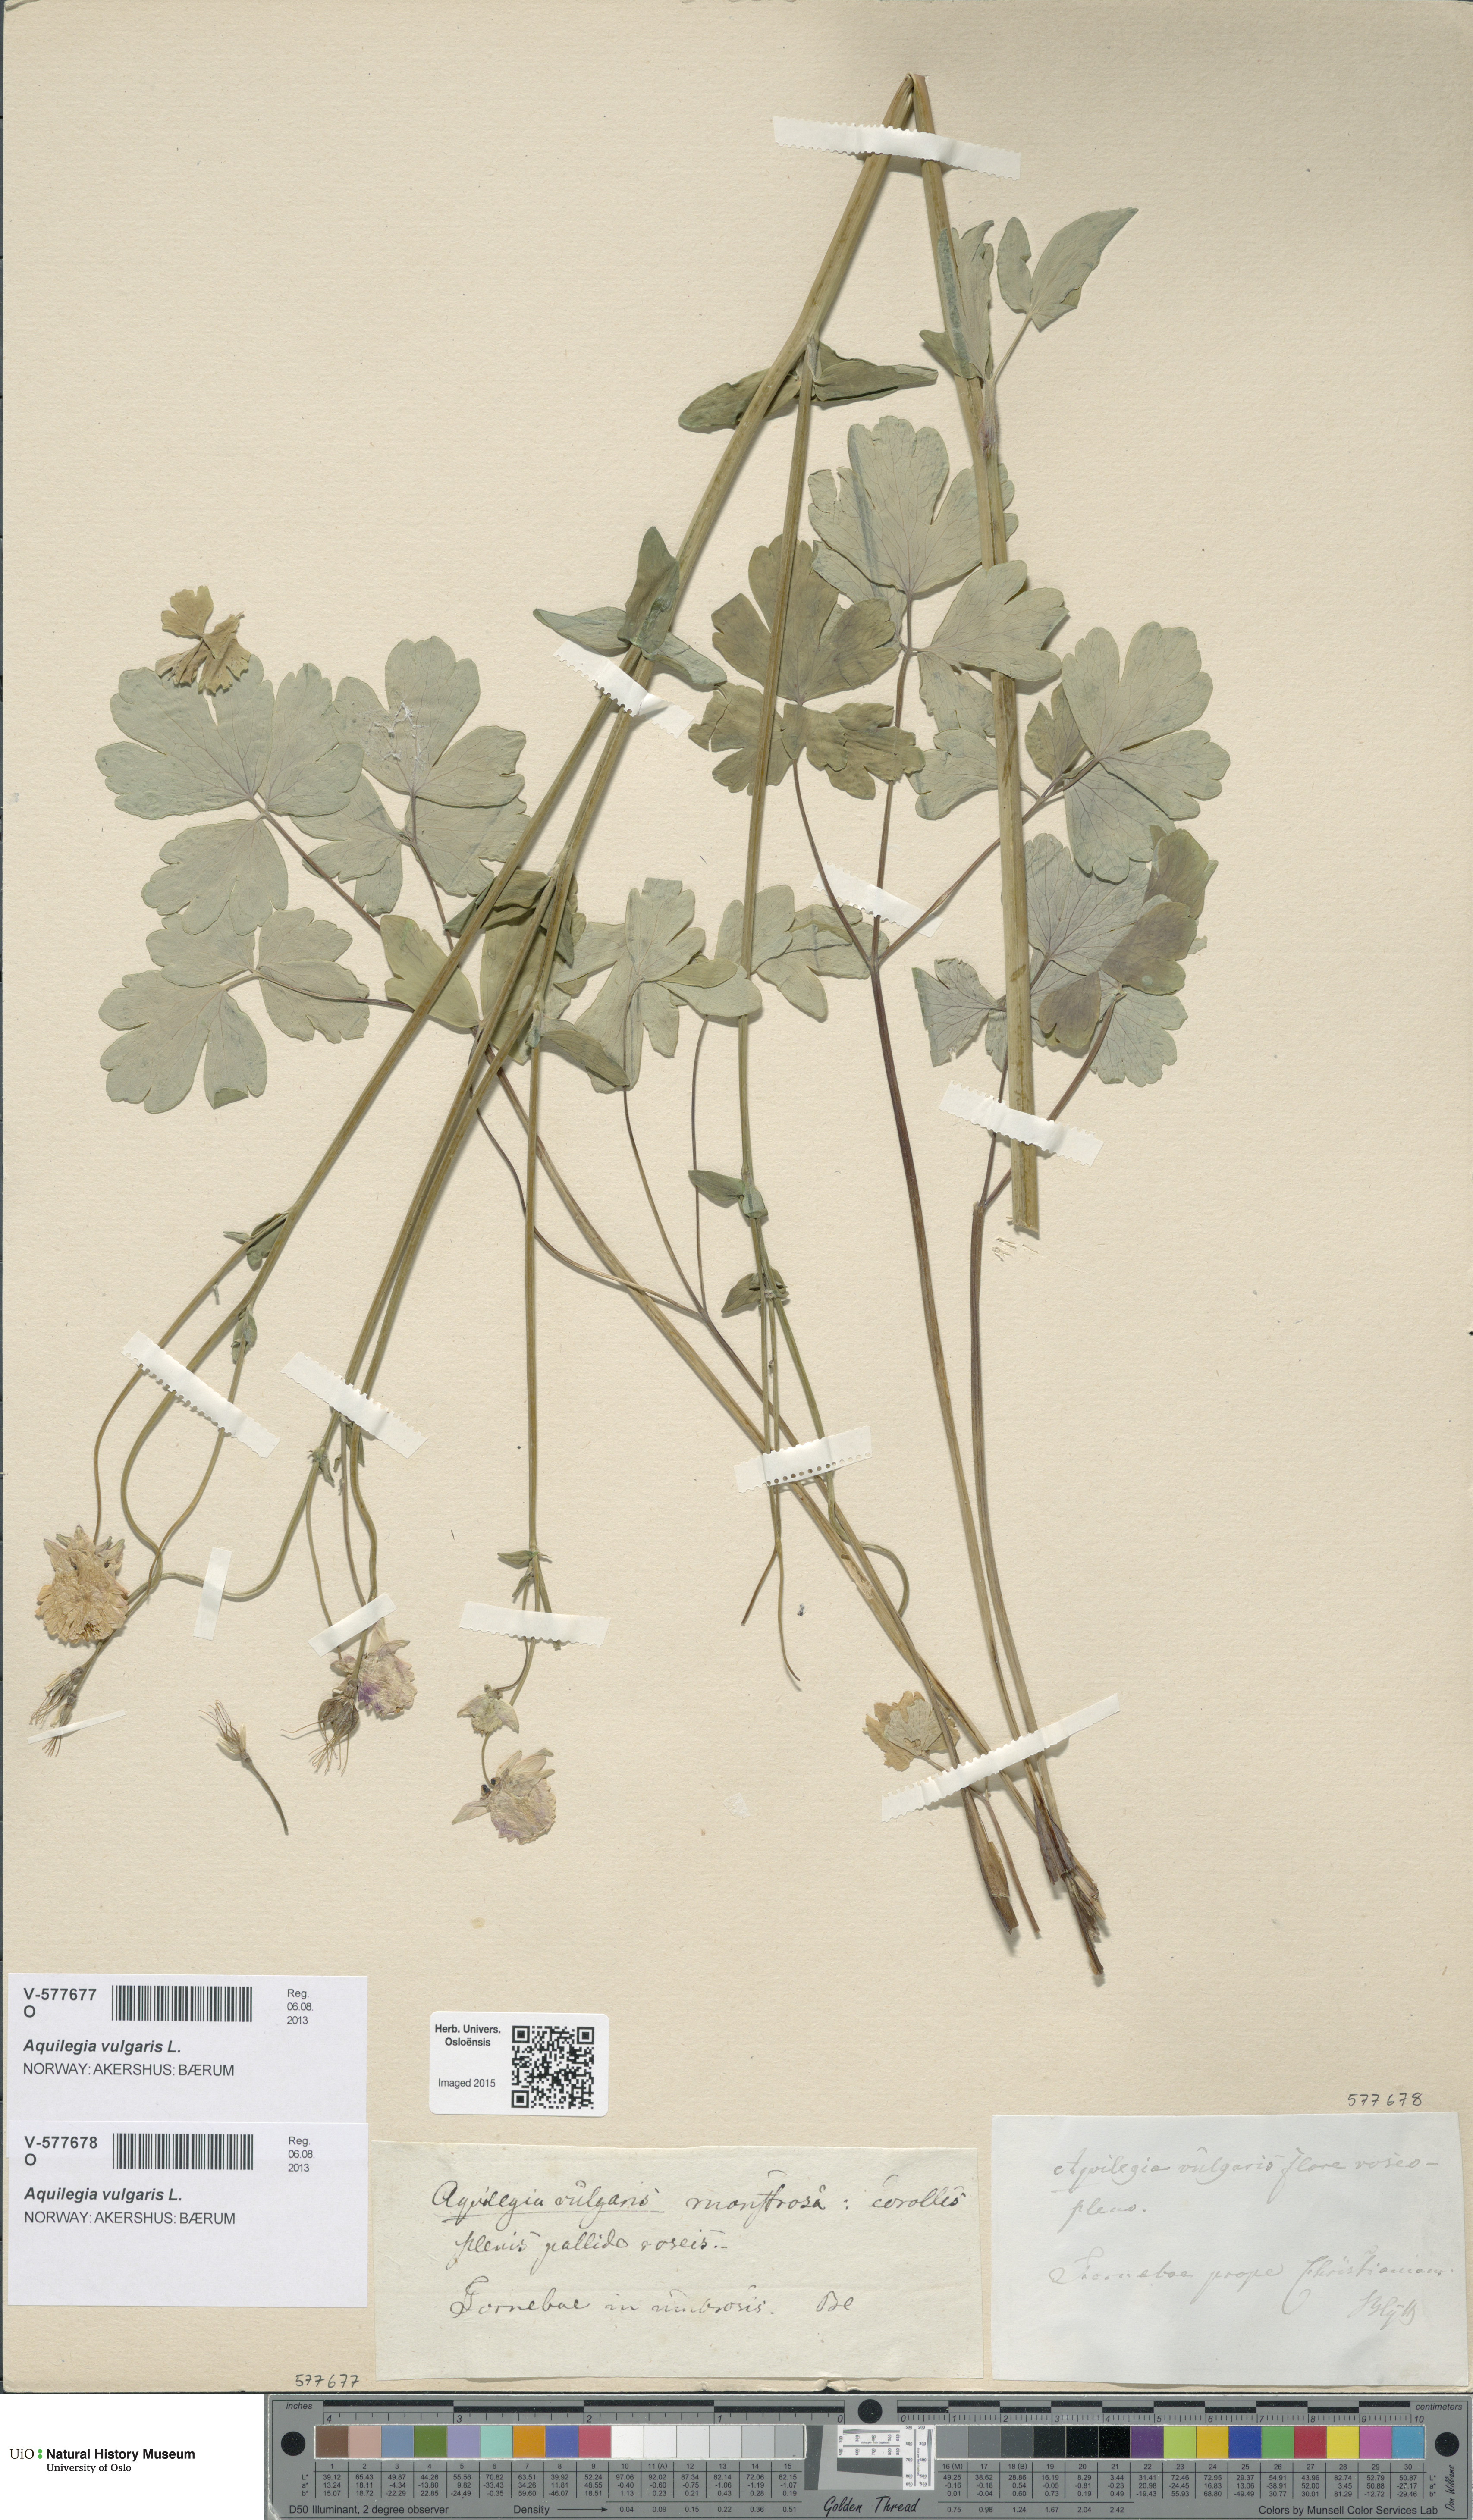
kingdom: Plantae
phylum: Tracheophyta
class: Magnoliopsida
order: Ranunculales
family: Ranunculaceae
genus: Aquilegia
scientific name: Aquilegia vulgaris
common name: Columbine
